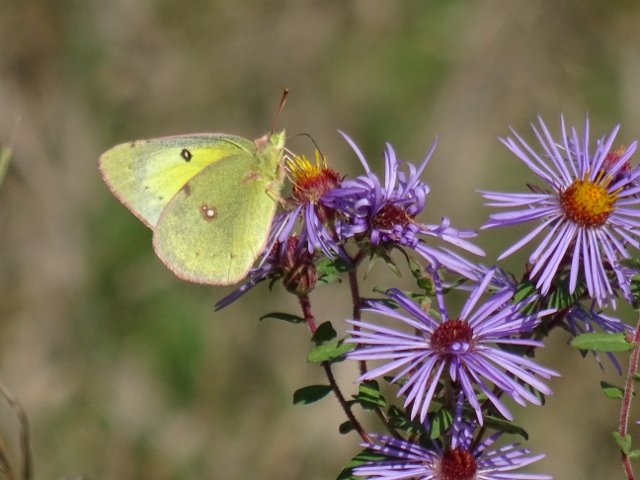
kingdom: Animalia
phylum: Arthropoda
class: Insecta
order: Lepidoptera
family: Pieridae
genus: Colias
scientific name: Colias philodice
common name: Clouded Sulphur
